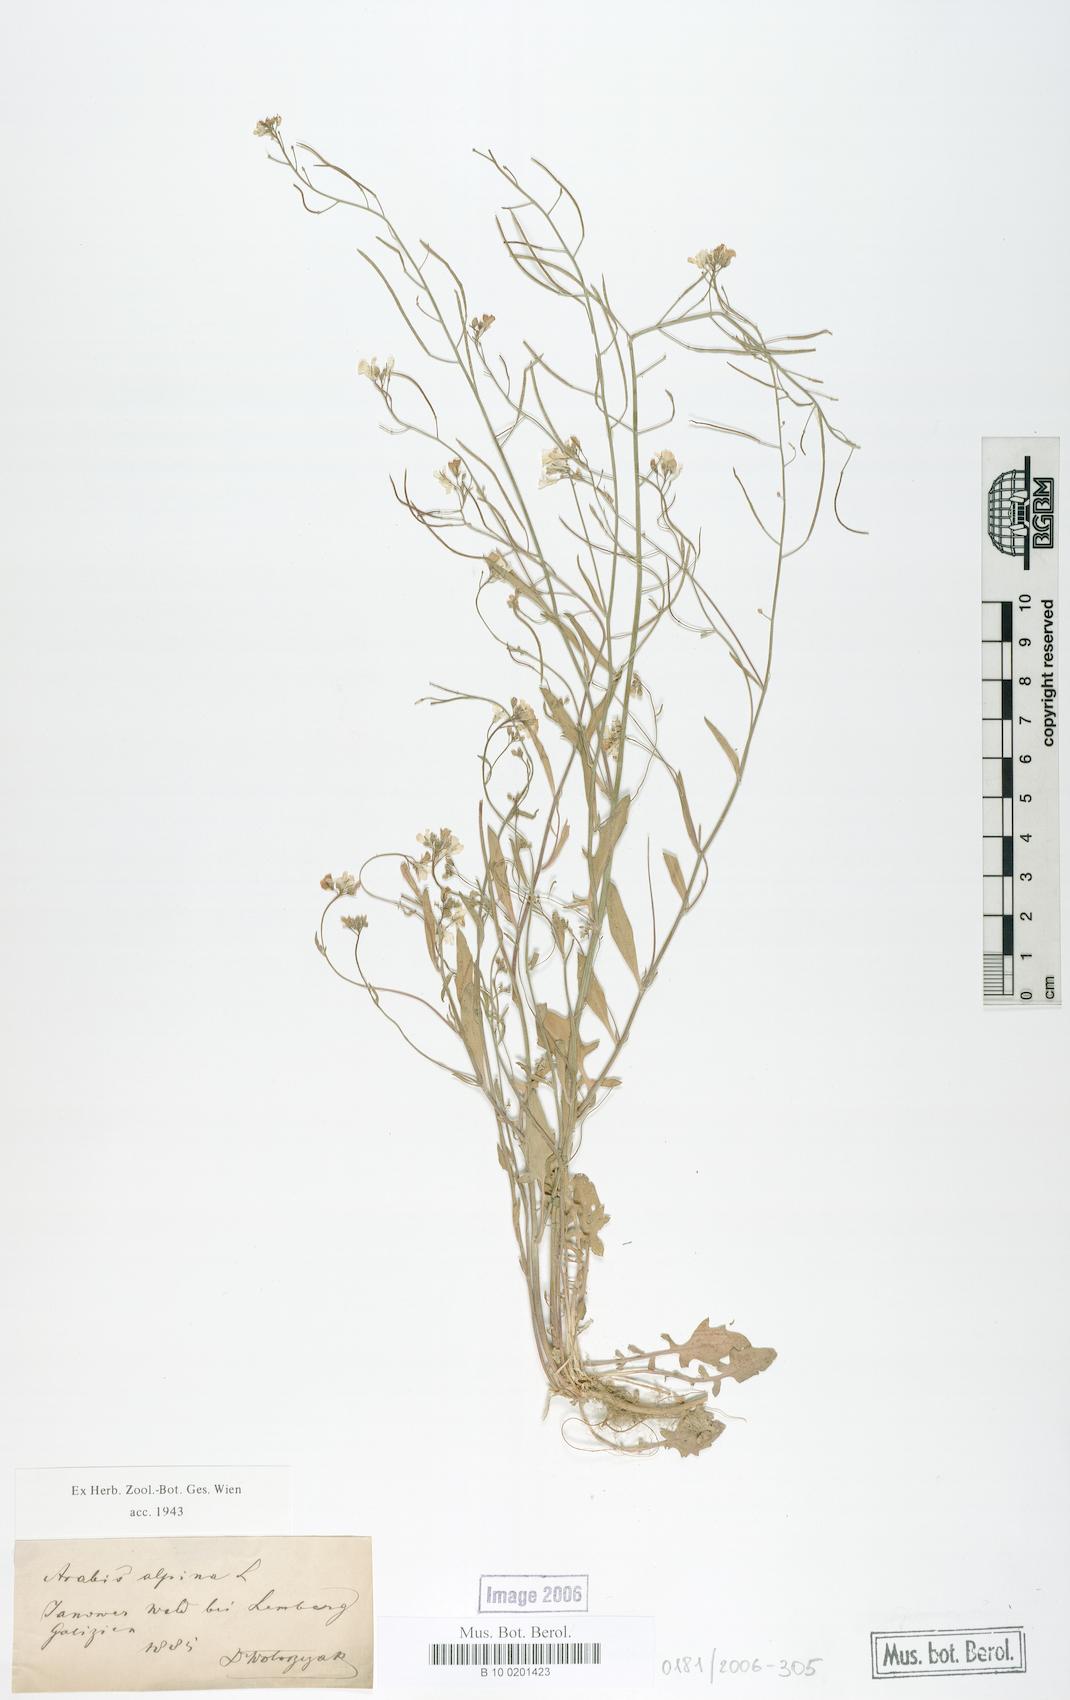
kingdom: Plantae
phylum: Tracheophyta
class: Magnoliopsida
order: Brassicales
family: Brassicaceae
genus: Arabis
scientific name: Arabis alpina
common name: Alpine rock-cress
